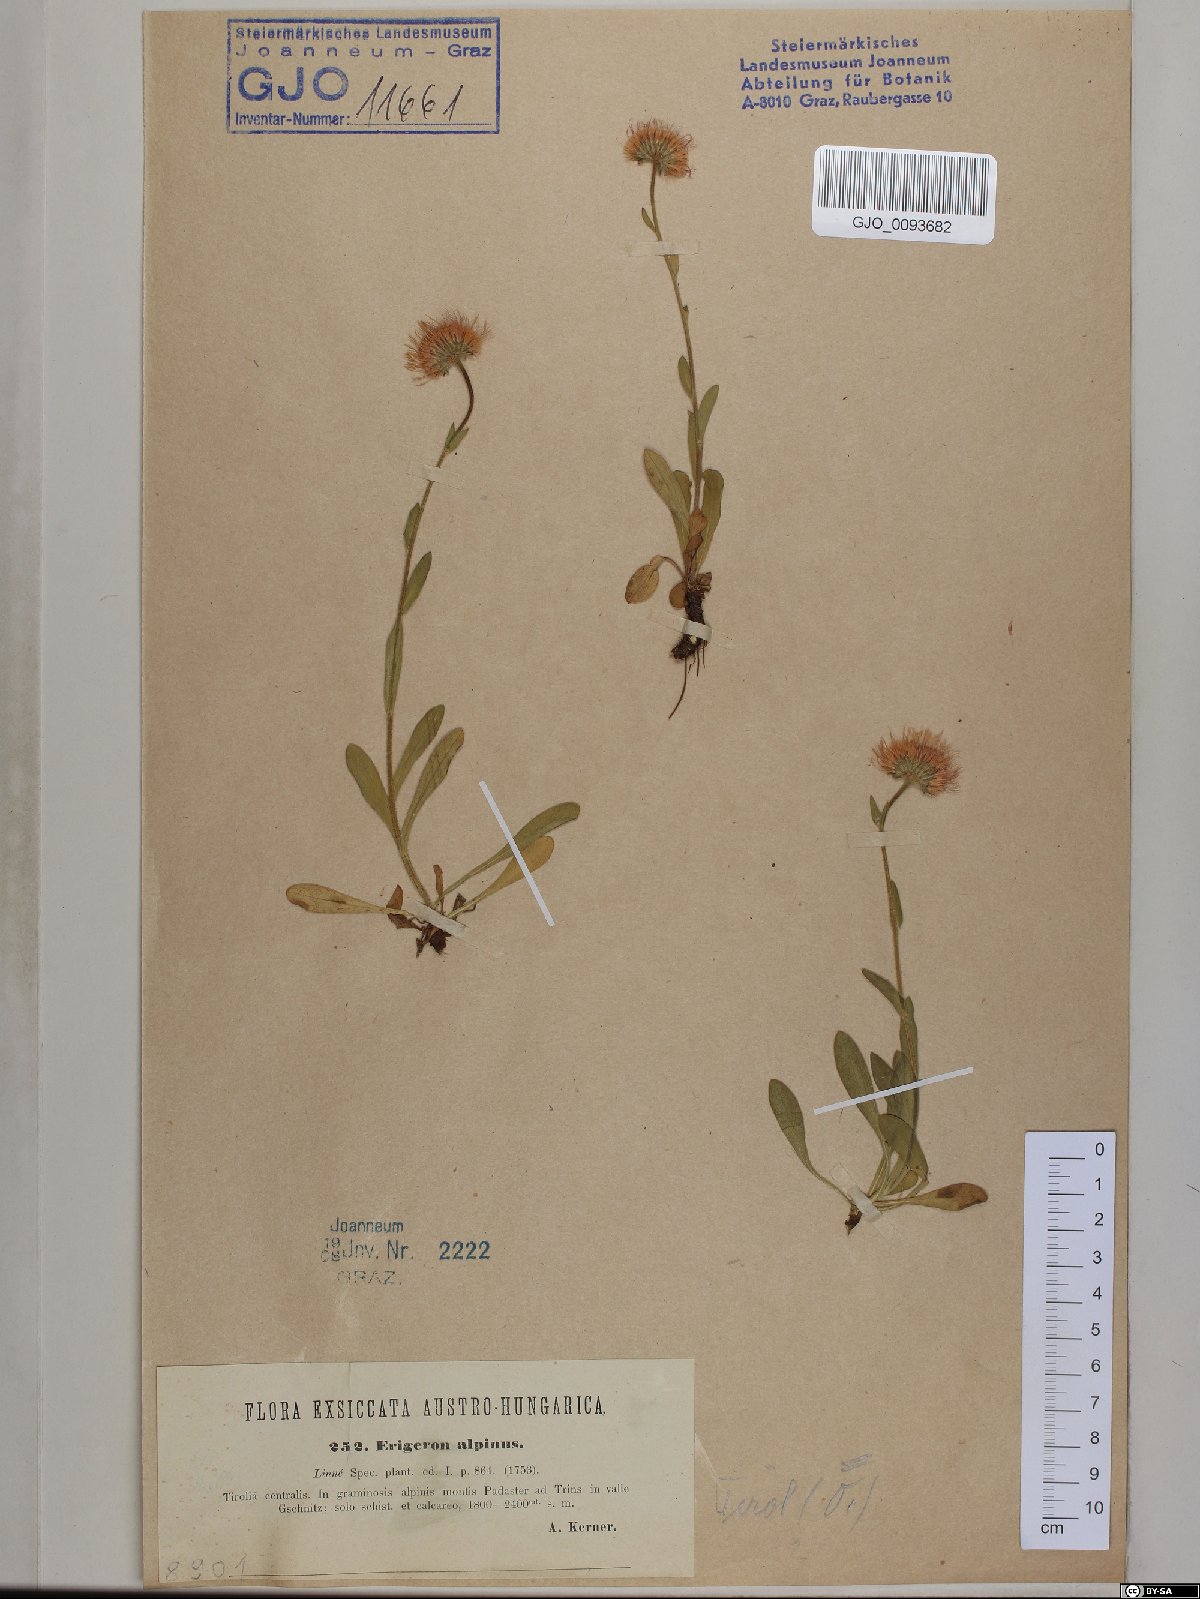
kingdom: Plantae
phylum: Tracheophyta
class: Magnoliopsida
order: Asterales
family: Asteraceae
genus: Erigeron
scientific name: Erigeron alpinus
